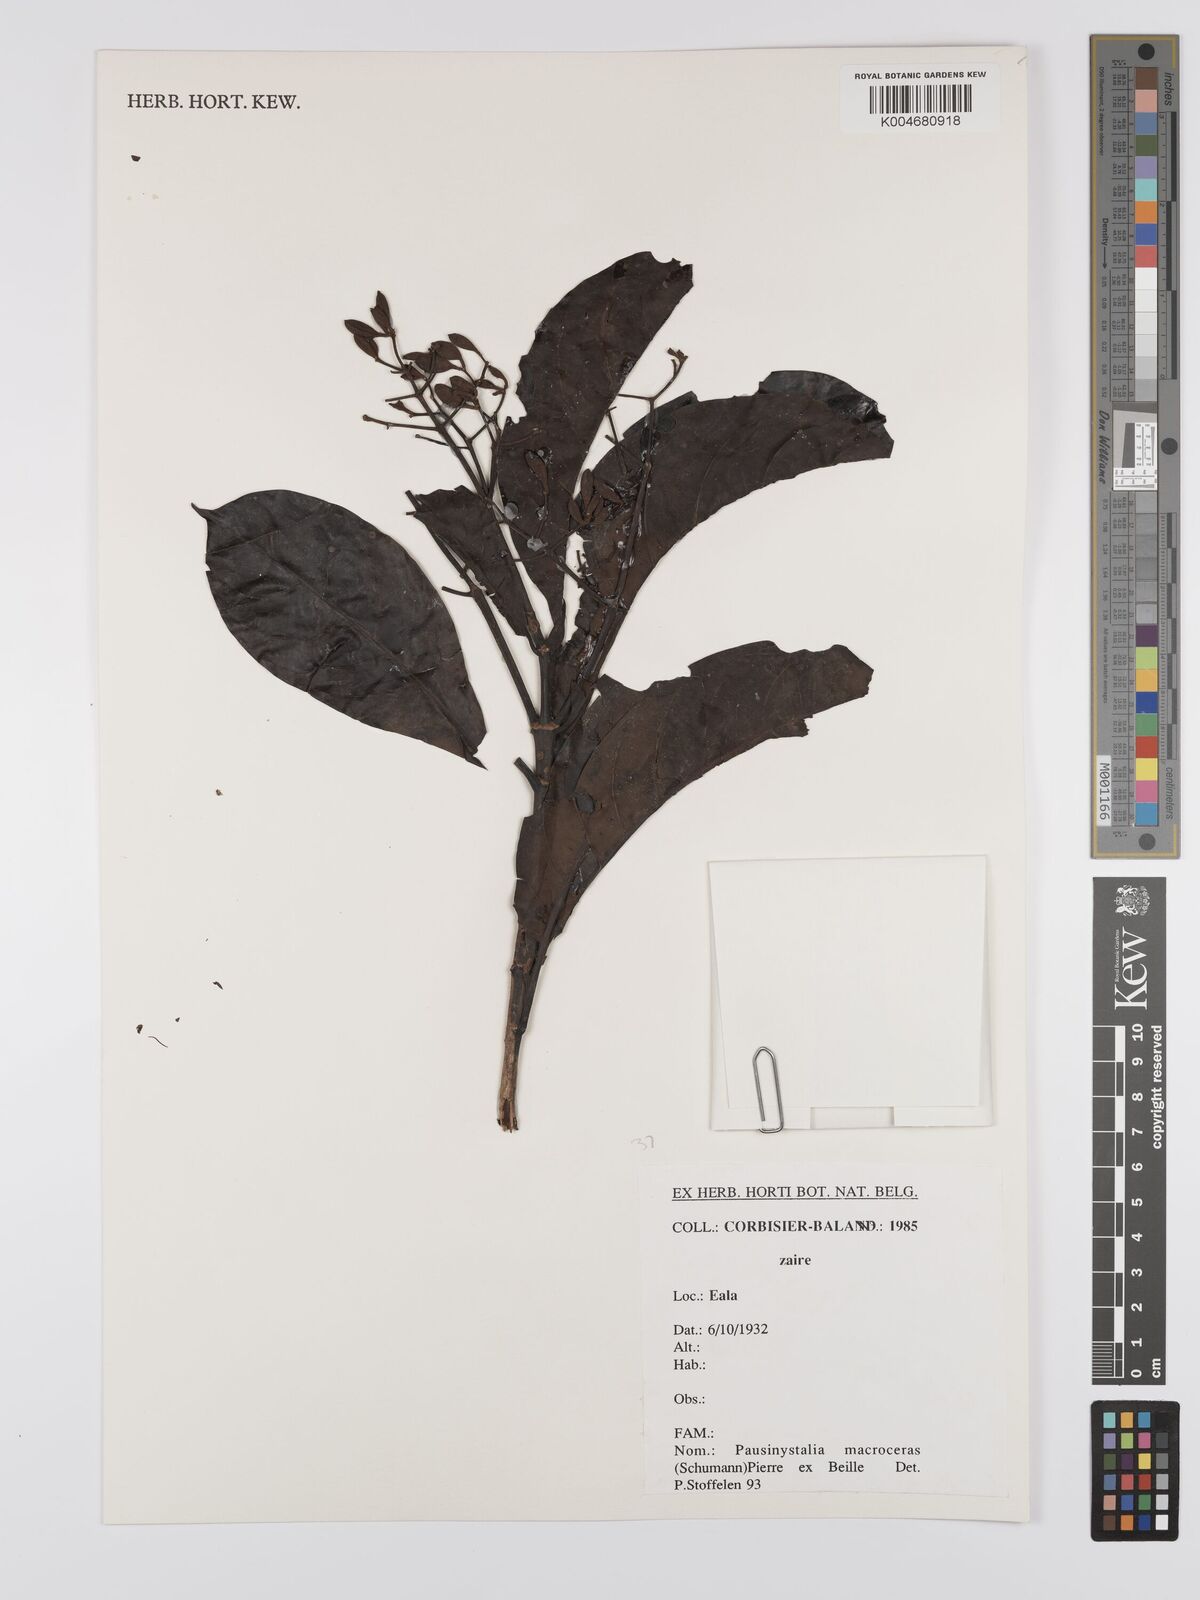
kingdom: Plantae
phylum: Tracheophyta
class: Magnoliopsida
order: Gentianales
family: Rubiaceae
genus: Corynanthe
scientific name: Corynanthe macroceras
